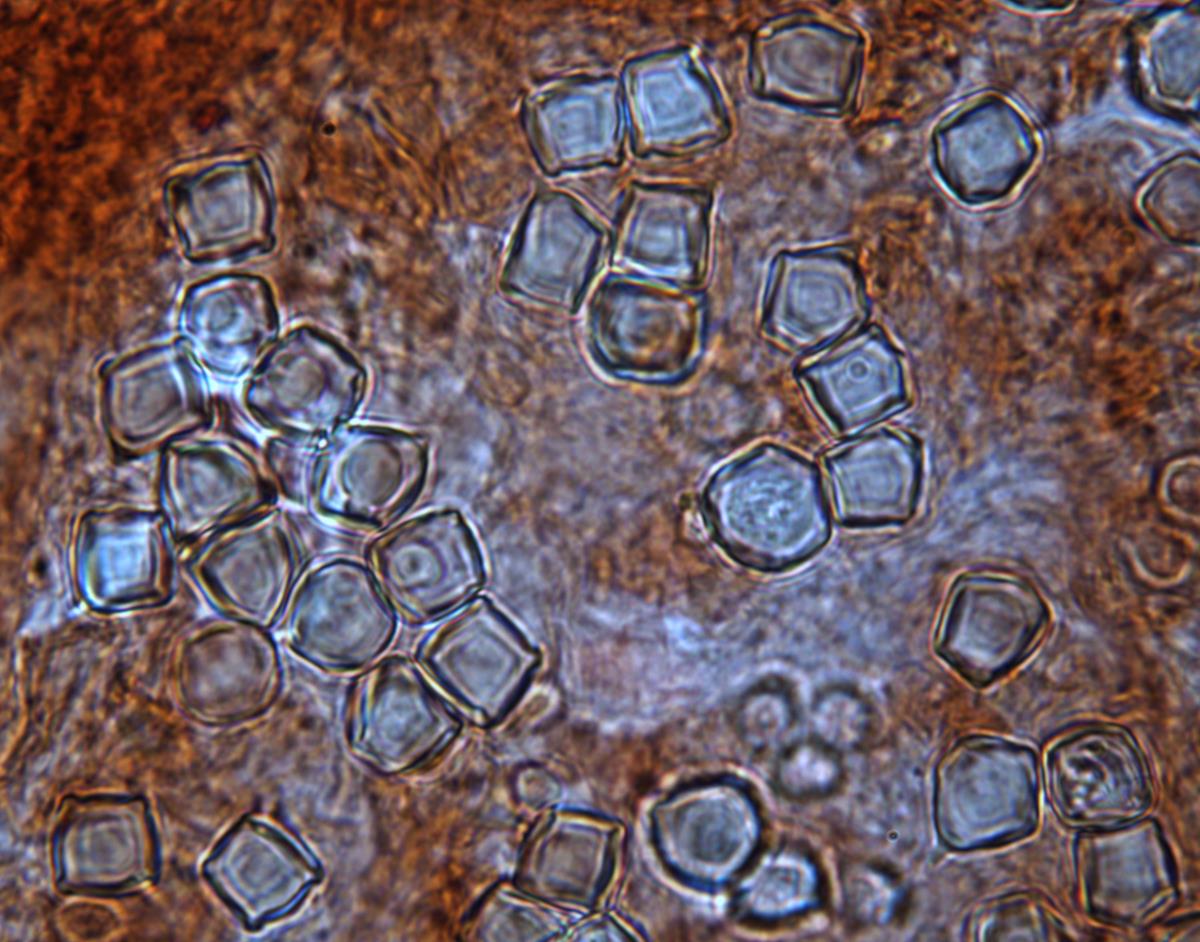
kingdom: Fungi
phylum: Basidiomycota
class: Agaricomycetes
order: Agaricales
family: Entolomataceae
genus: Entoloma
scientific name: Entoloma gasteromycetoides
